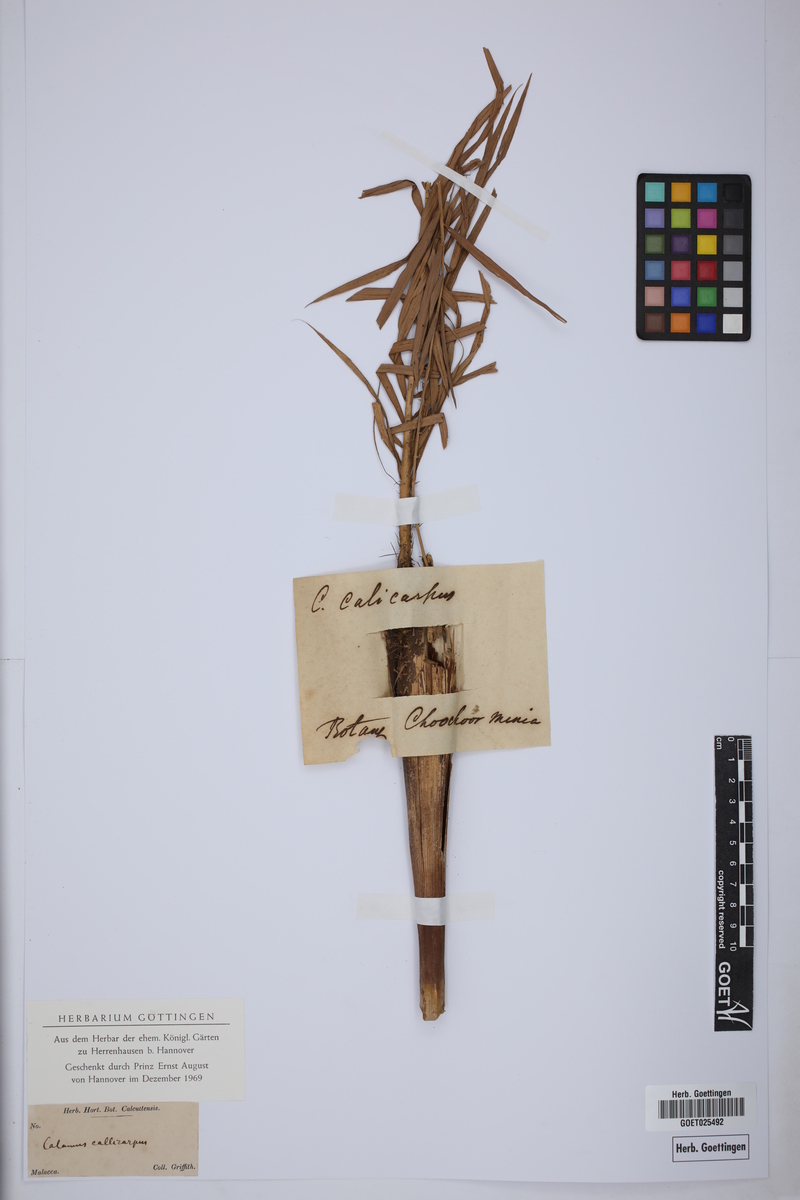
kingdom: Plantae
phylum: Tracheophyta
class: Liliopsida
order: Arecales
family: Arecaceae
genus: Calamus
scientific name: Calamus calicarpus
